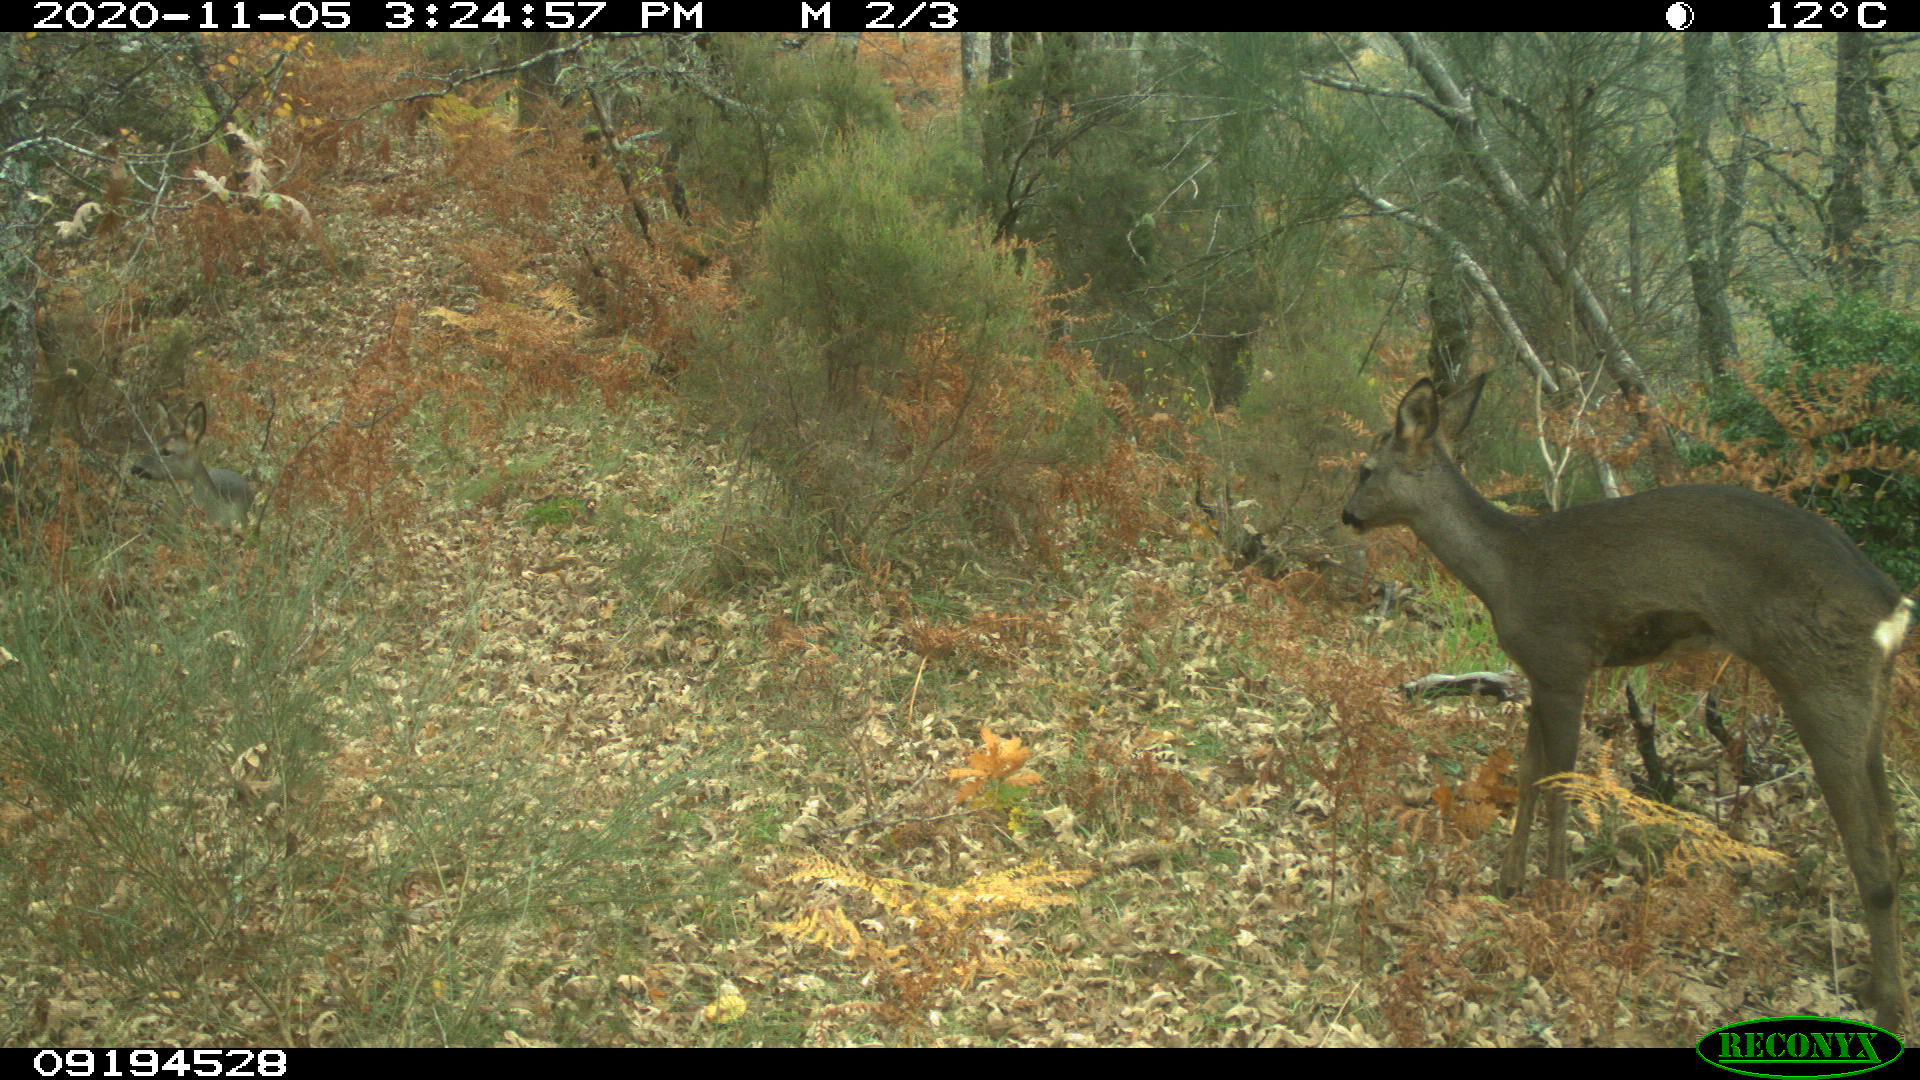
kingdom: Animalia
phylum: Chordata
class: Mammalia
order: Artiodactyla
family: Cervidae
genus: Capreolus
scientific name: Capreolus capreolus
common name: Western roe deer
